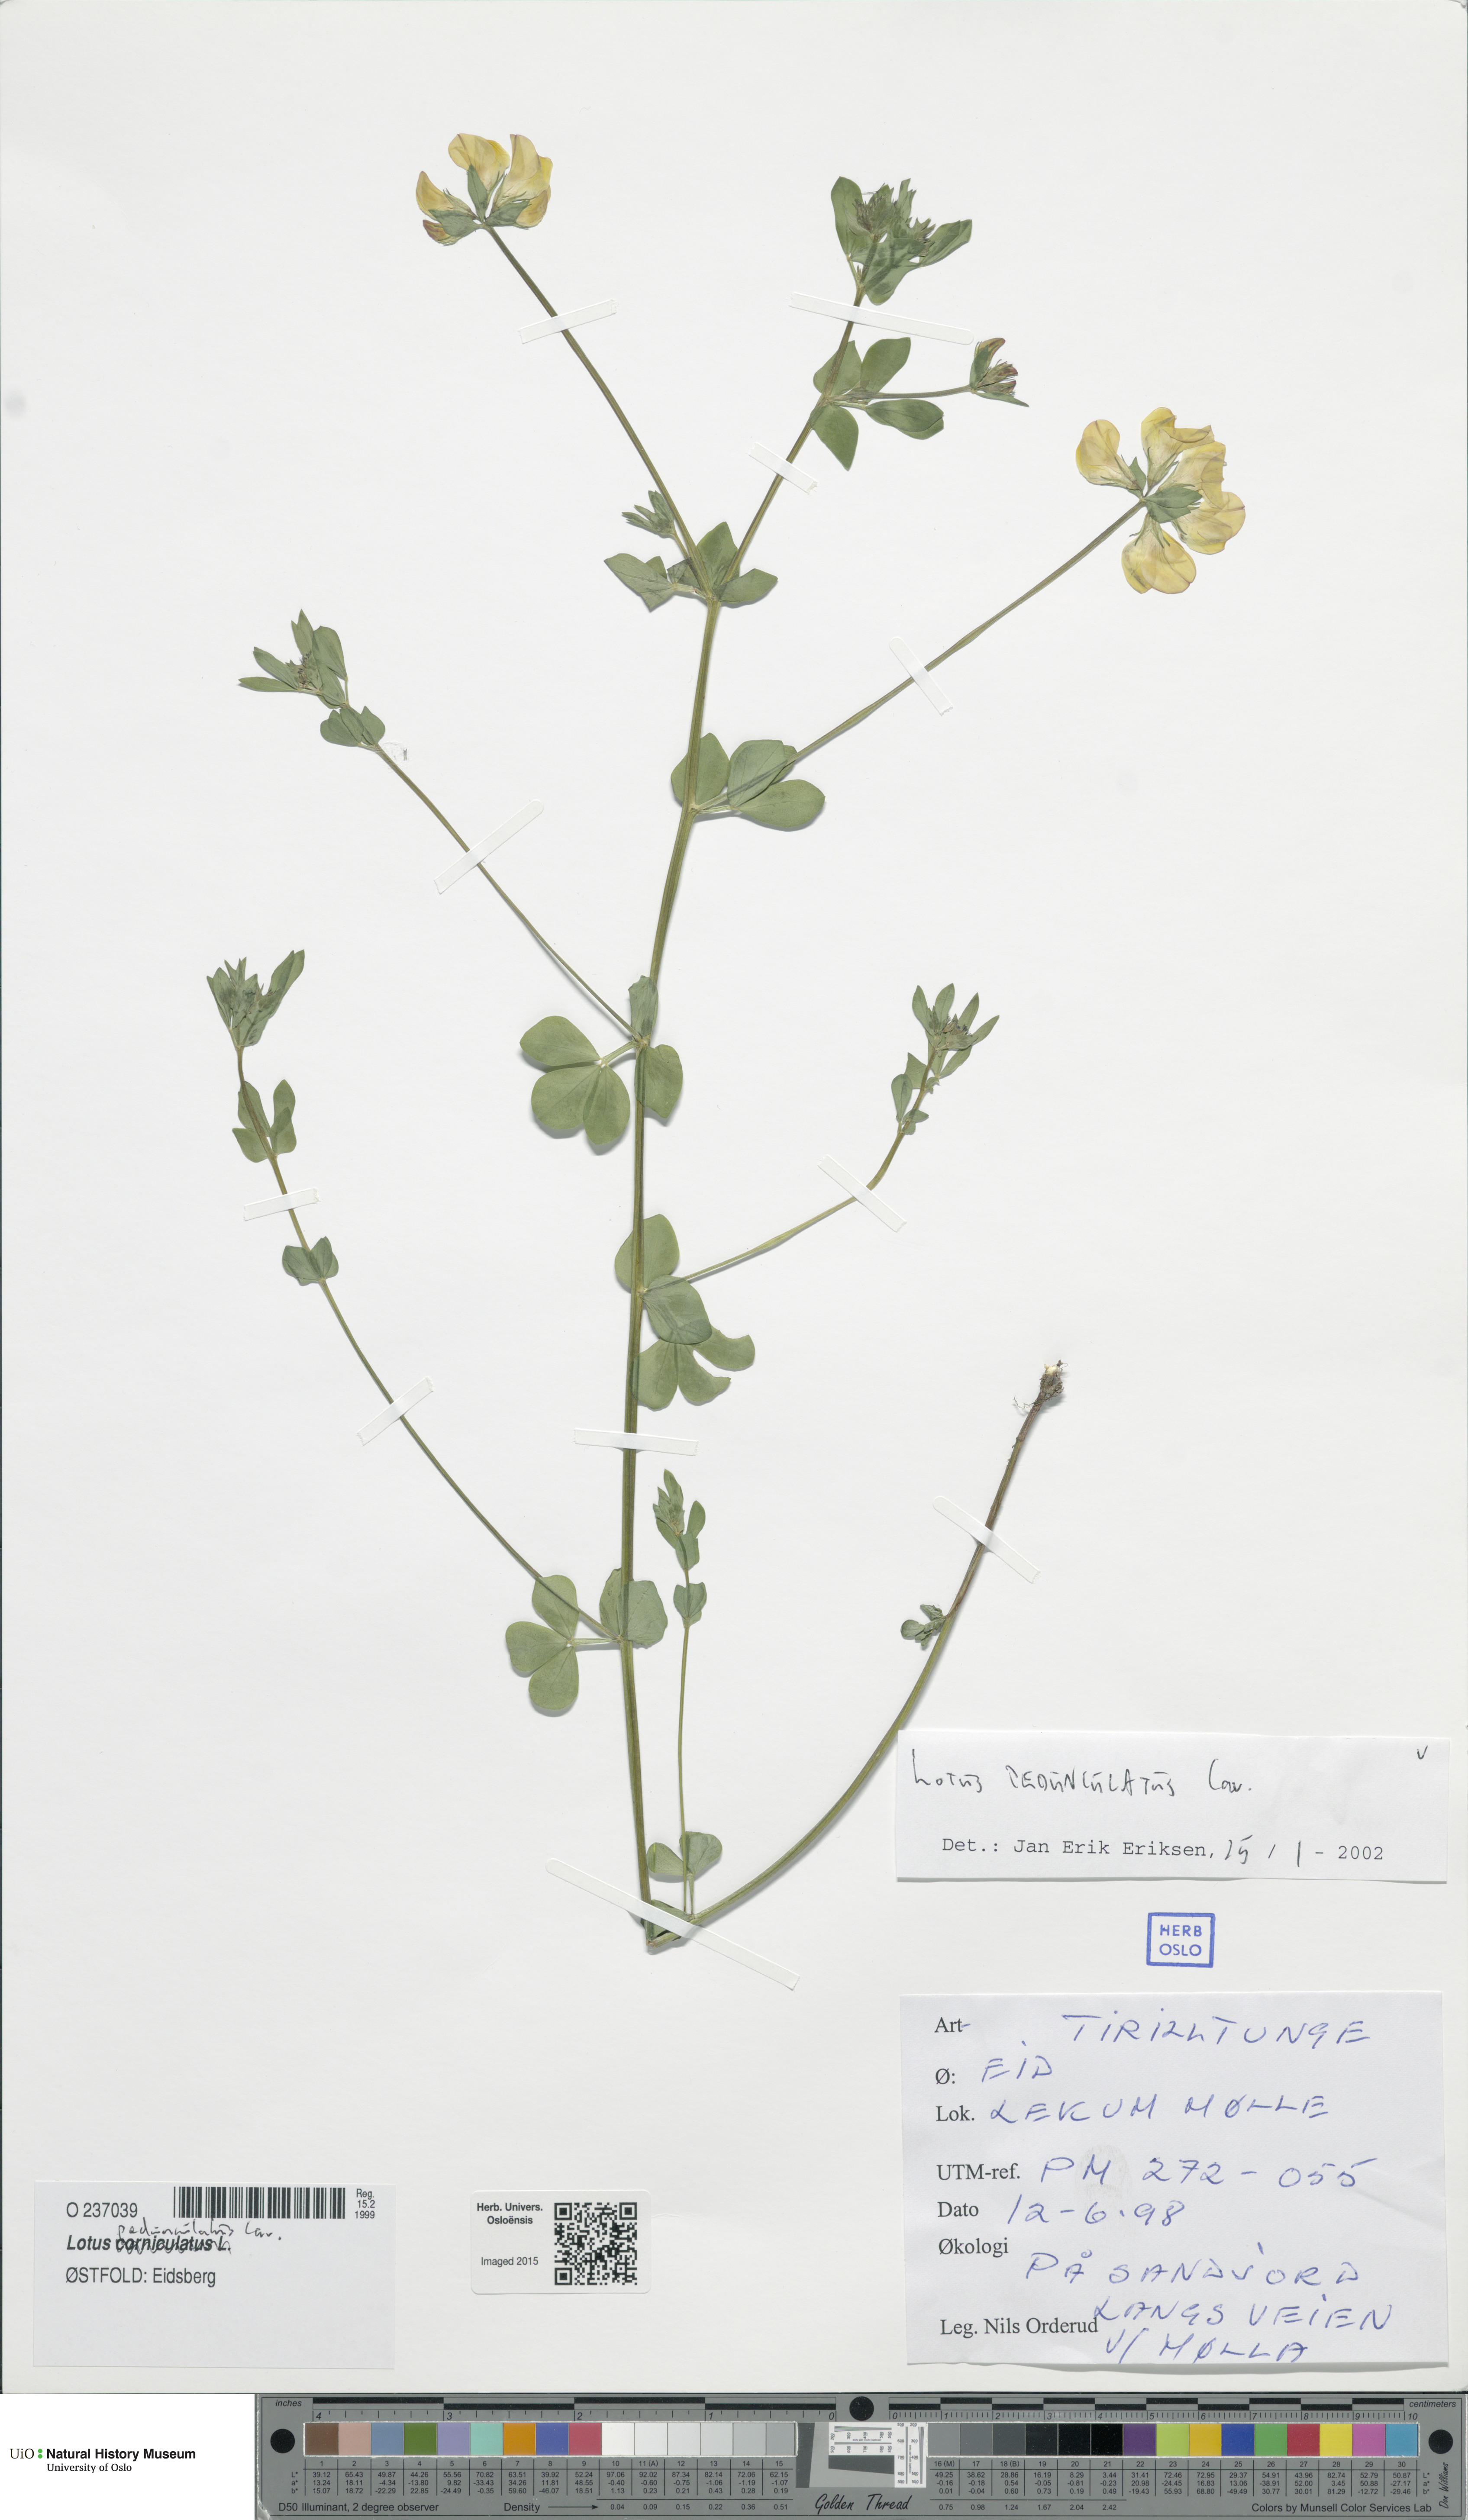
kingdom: Plantae
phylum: Tracheophyta
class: Magnoliopsida
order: Fabales
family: Fabaceae
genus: Lotus
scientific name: Lotus pedunculatus
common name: Greater birdsfoot-trefoil
